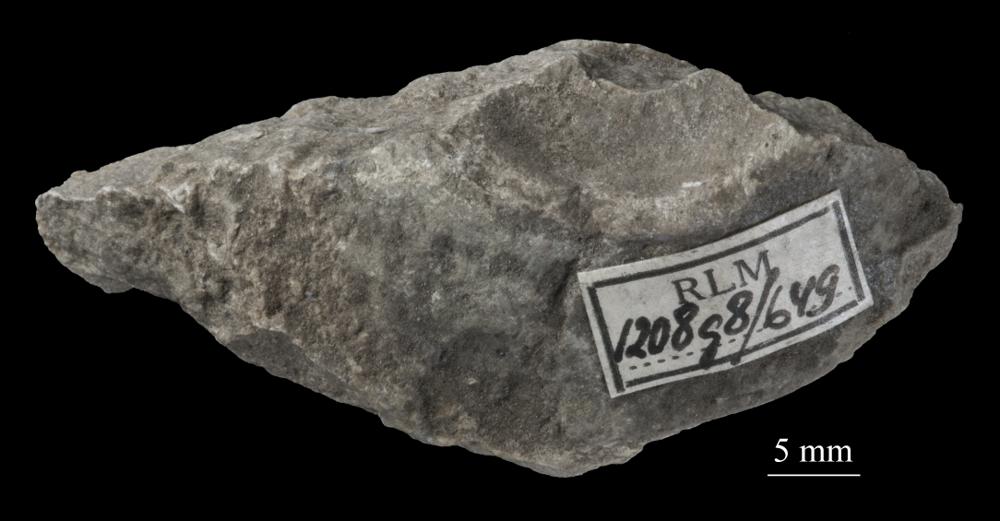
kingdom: Animalia
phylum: Mollusca
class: Gastropoda
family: Lophospiridae
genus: Lophospira
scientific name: Lophospira
